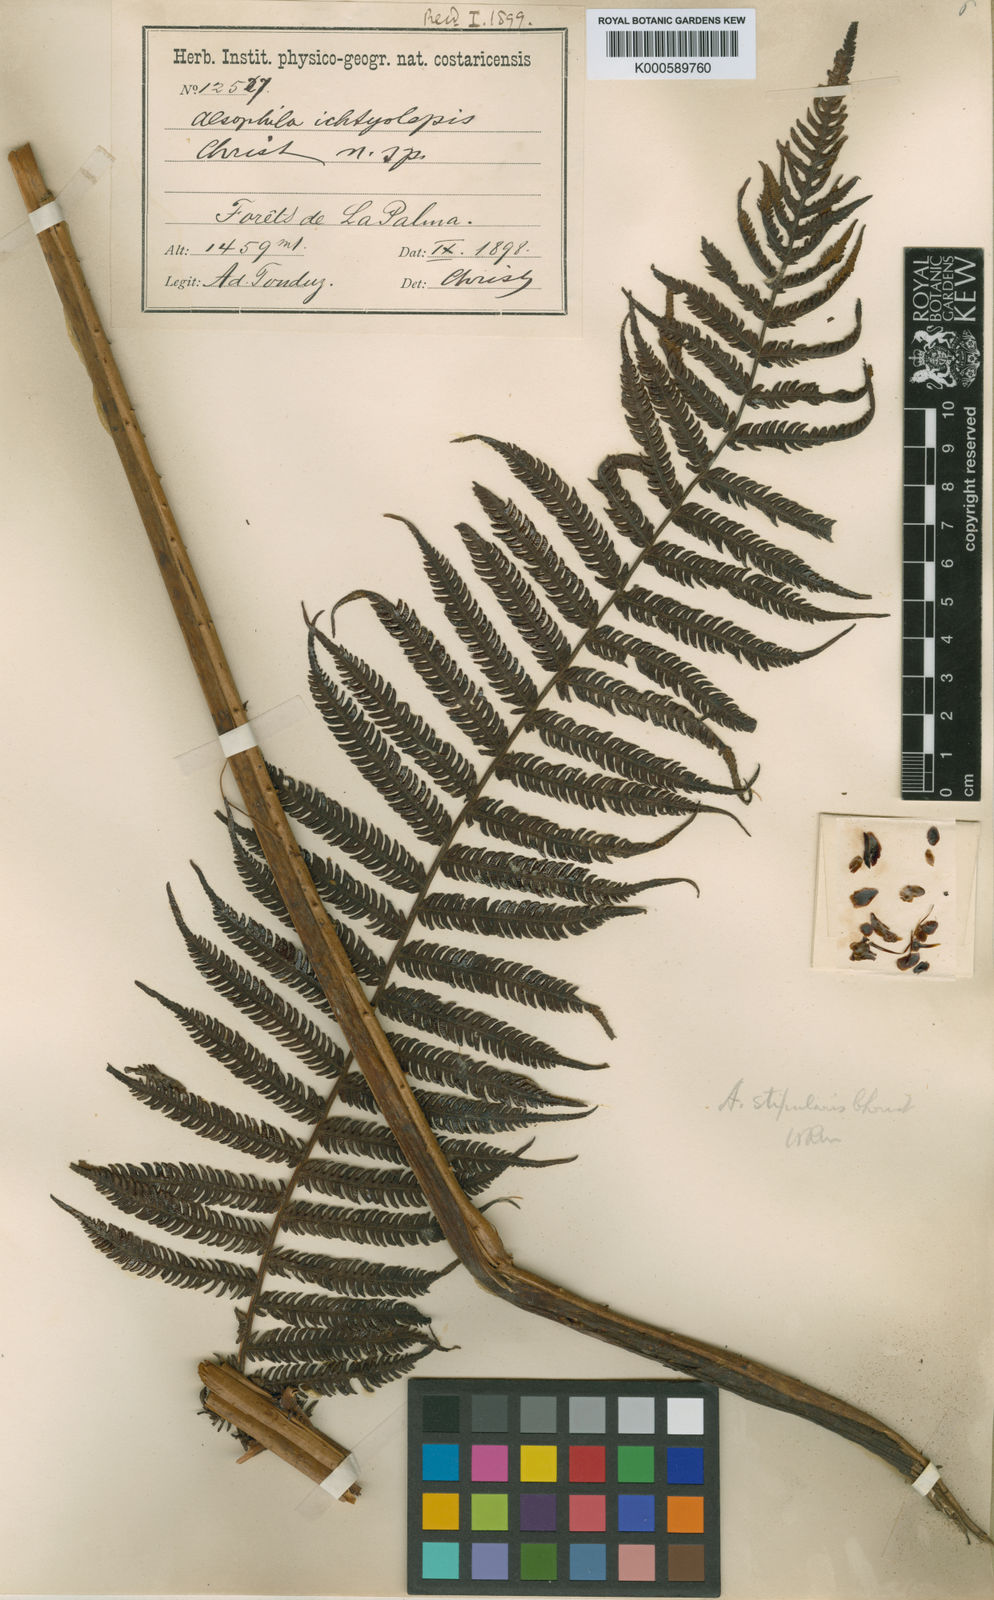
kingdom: Plantae
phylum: Tracheophyta
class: Polypodiopsida
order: Cyatheales
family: Cyatheaceae
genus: Cyathea
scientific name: Cyathea bicrenata
